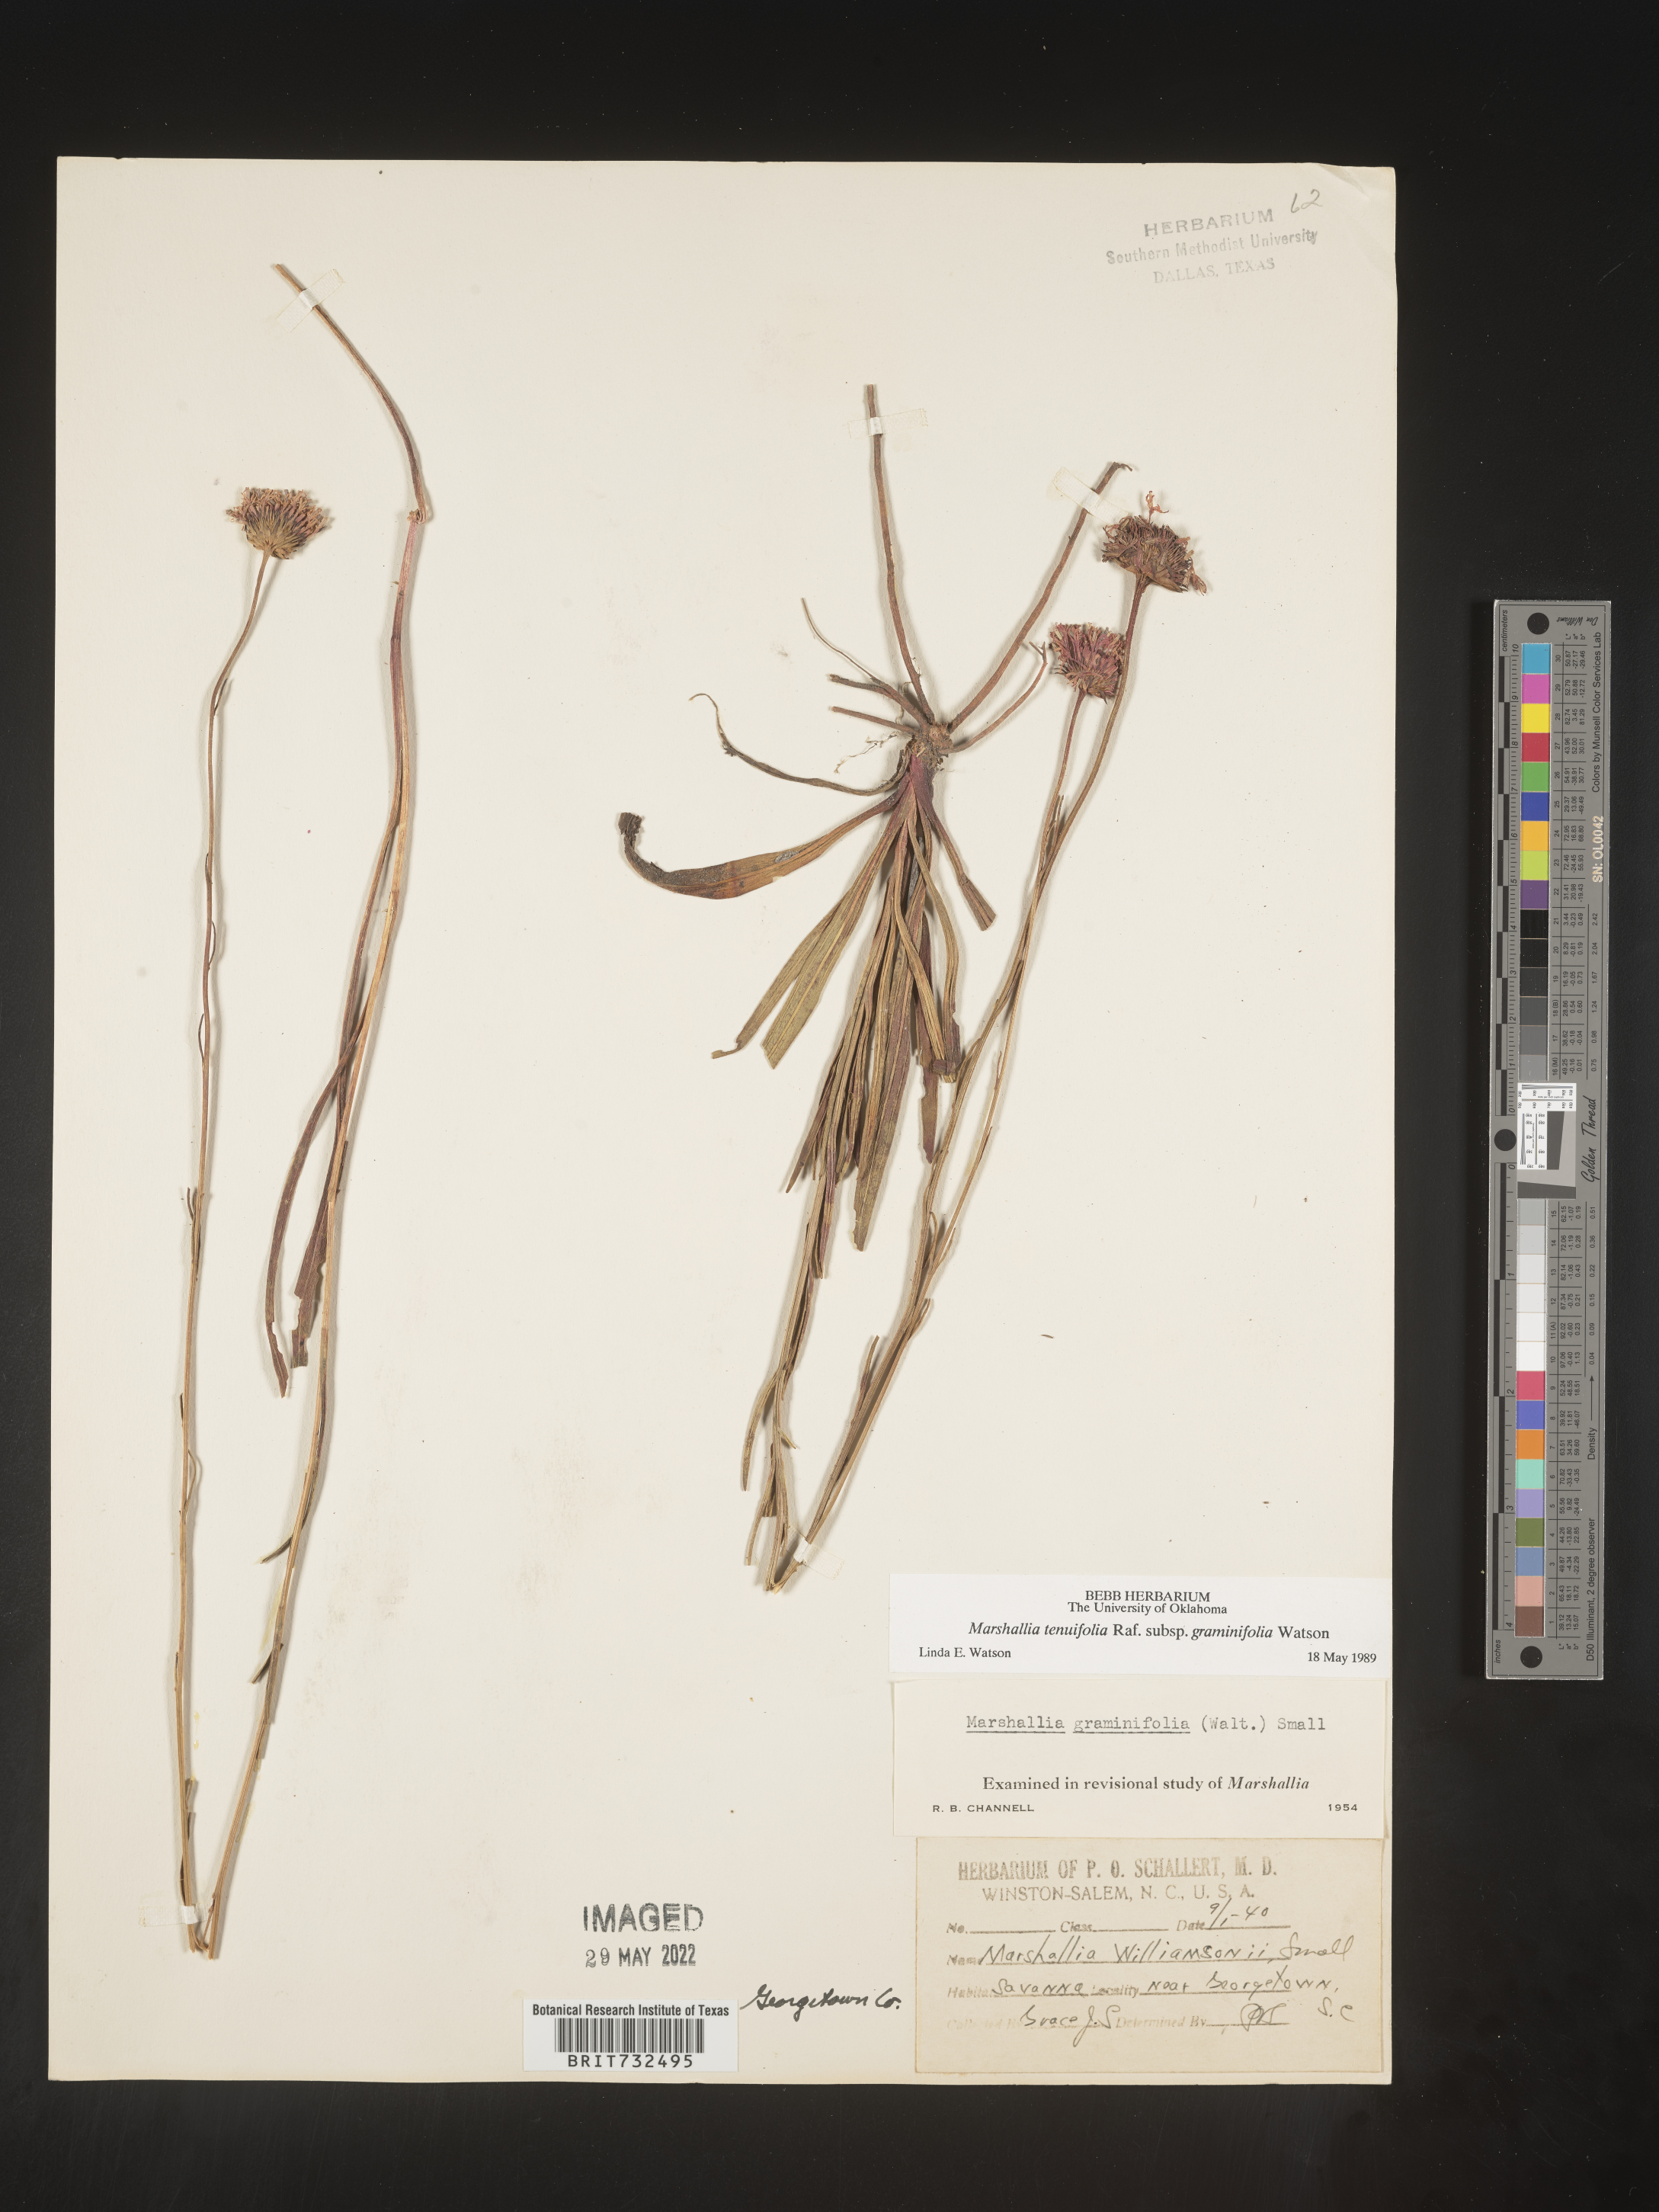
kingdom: Plantae
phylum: Tracheophyta
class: Magnoliopsida
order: Asterales
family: Asteraceae
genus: Marshallia
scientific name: Marshallia graminifolia
